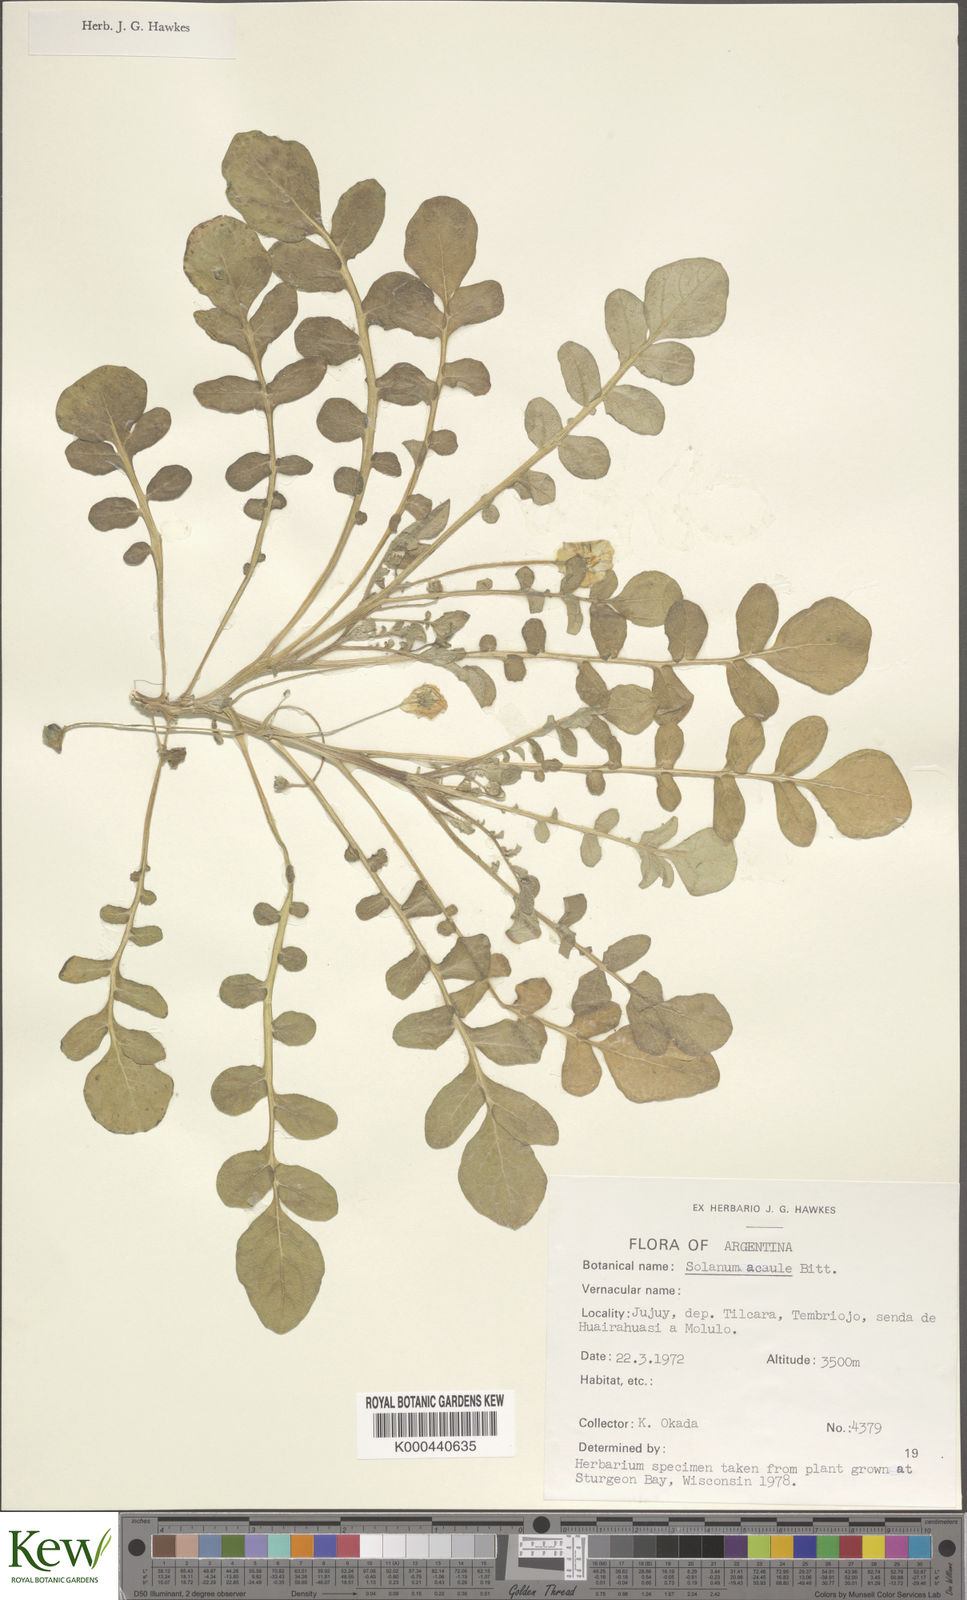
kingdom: Plantae
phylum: Tracheophyta
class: Magnoliopsida
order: Solanales
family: Solanaceae
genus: Solanum
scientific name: Solanum acaule
